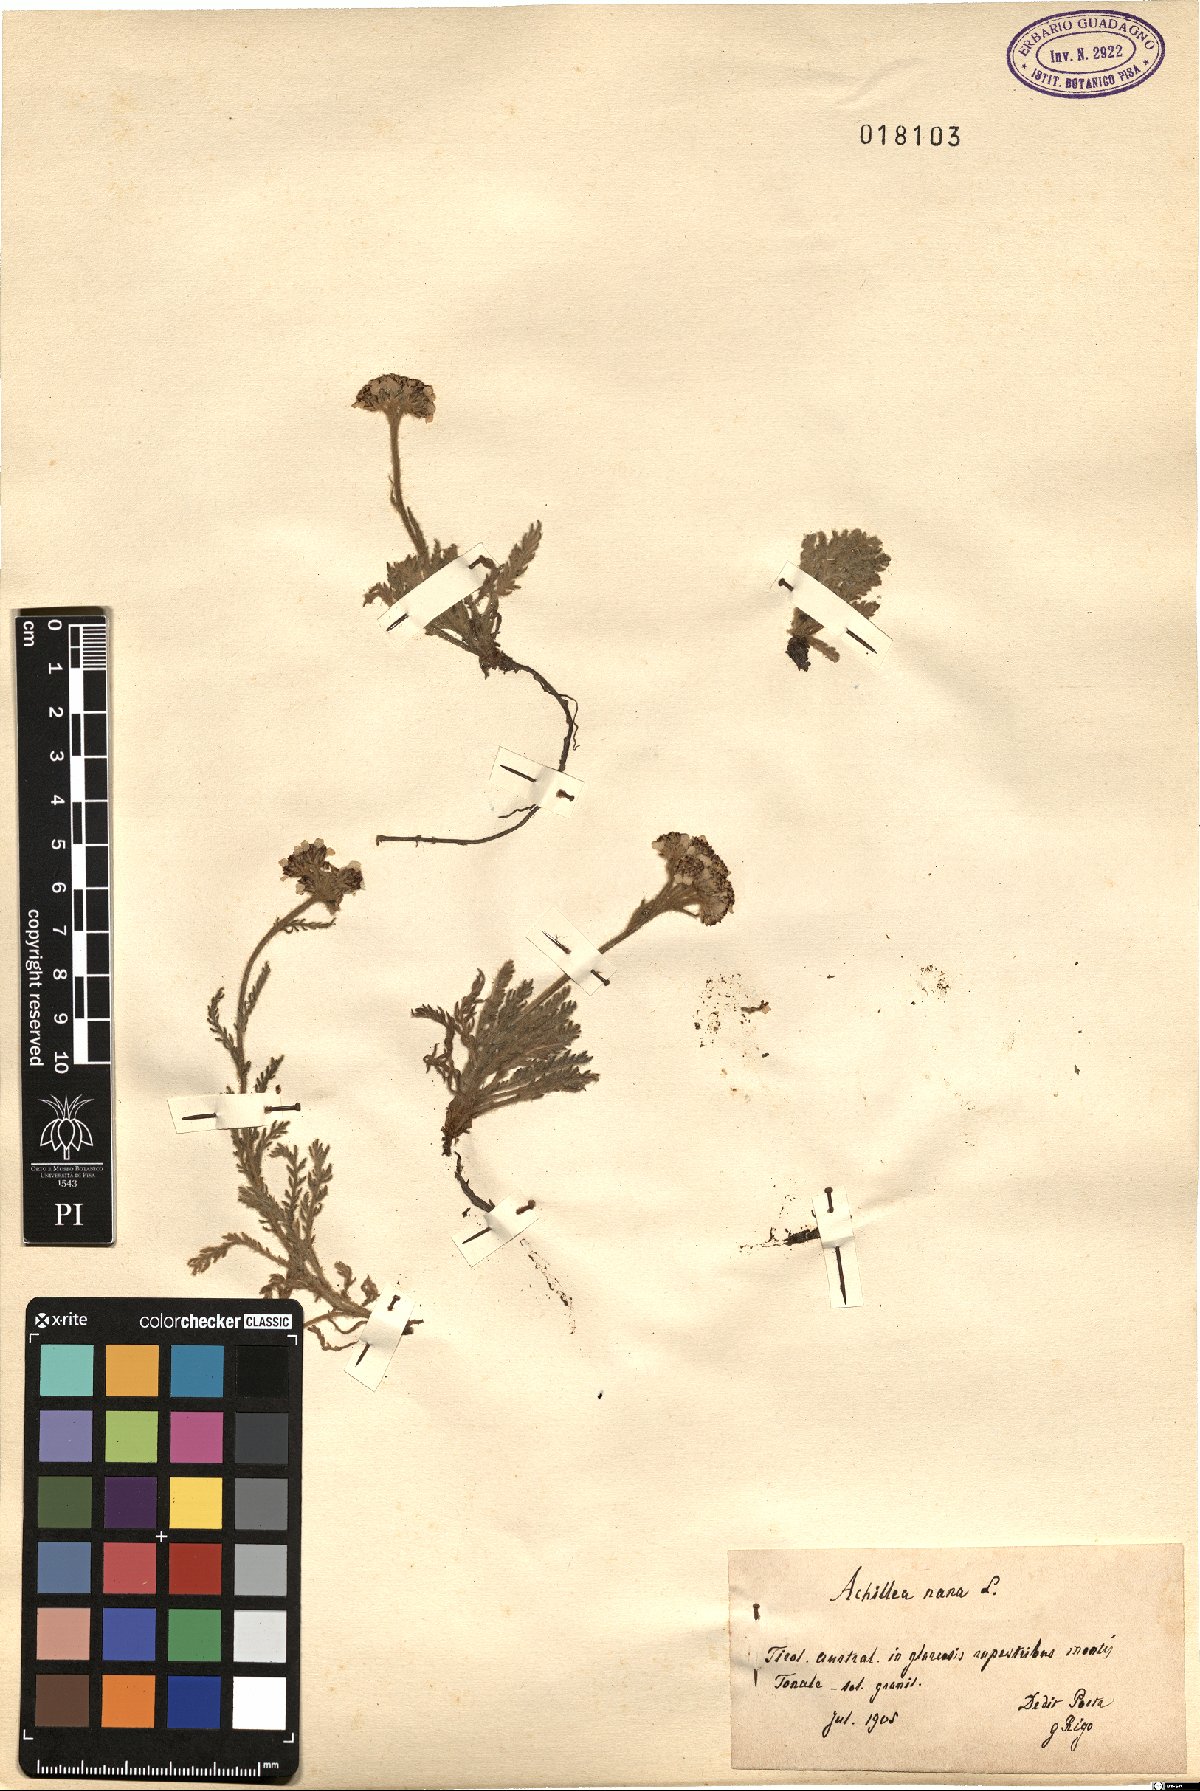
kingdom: Plantae
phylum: Tracheophyta
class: Magnoliopsida
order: Asterales
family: Asteraceae
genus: Achillea
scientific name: Achillea nana
